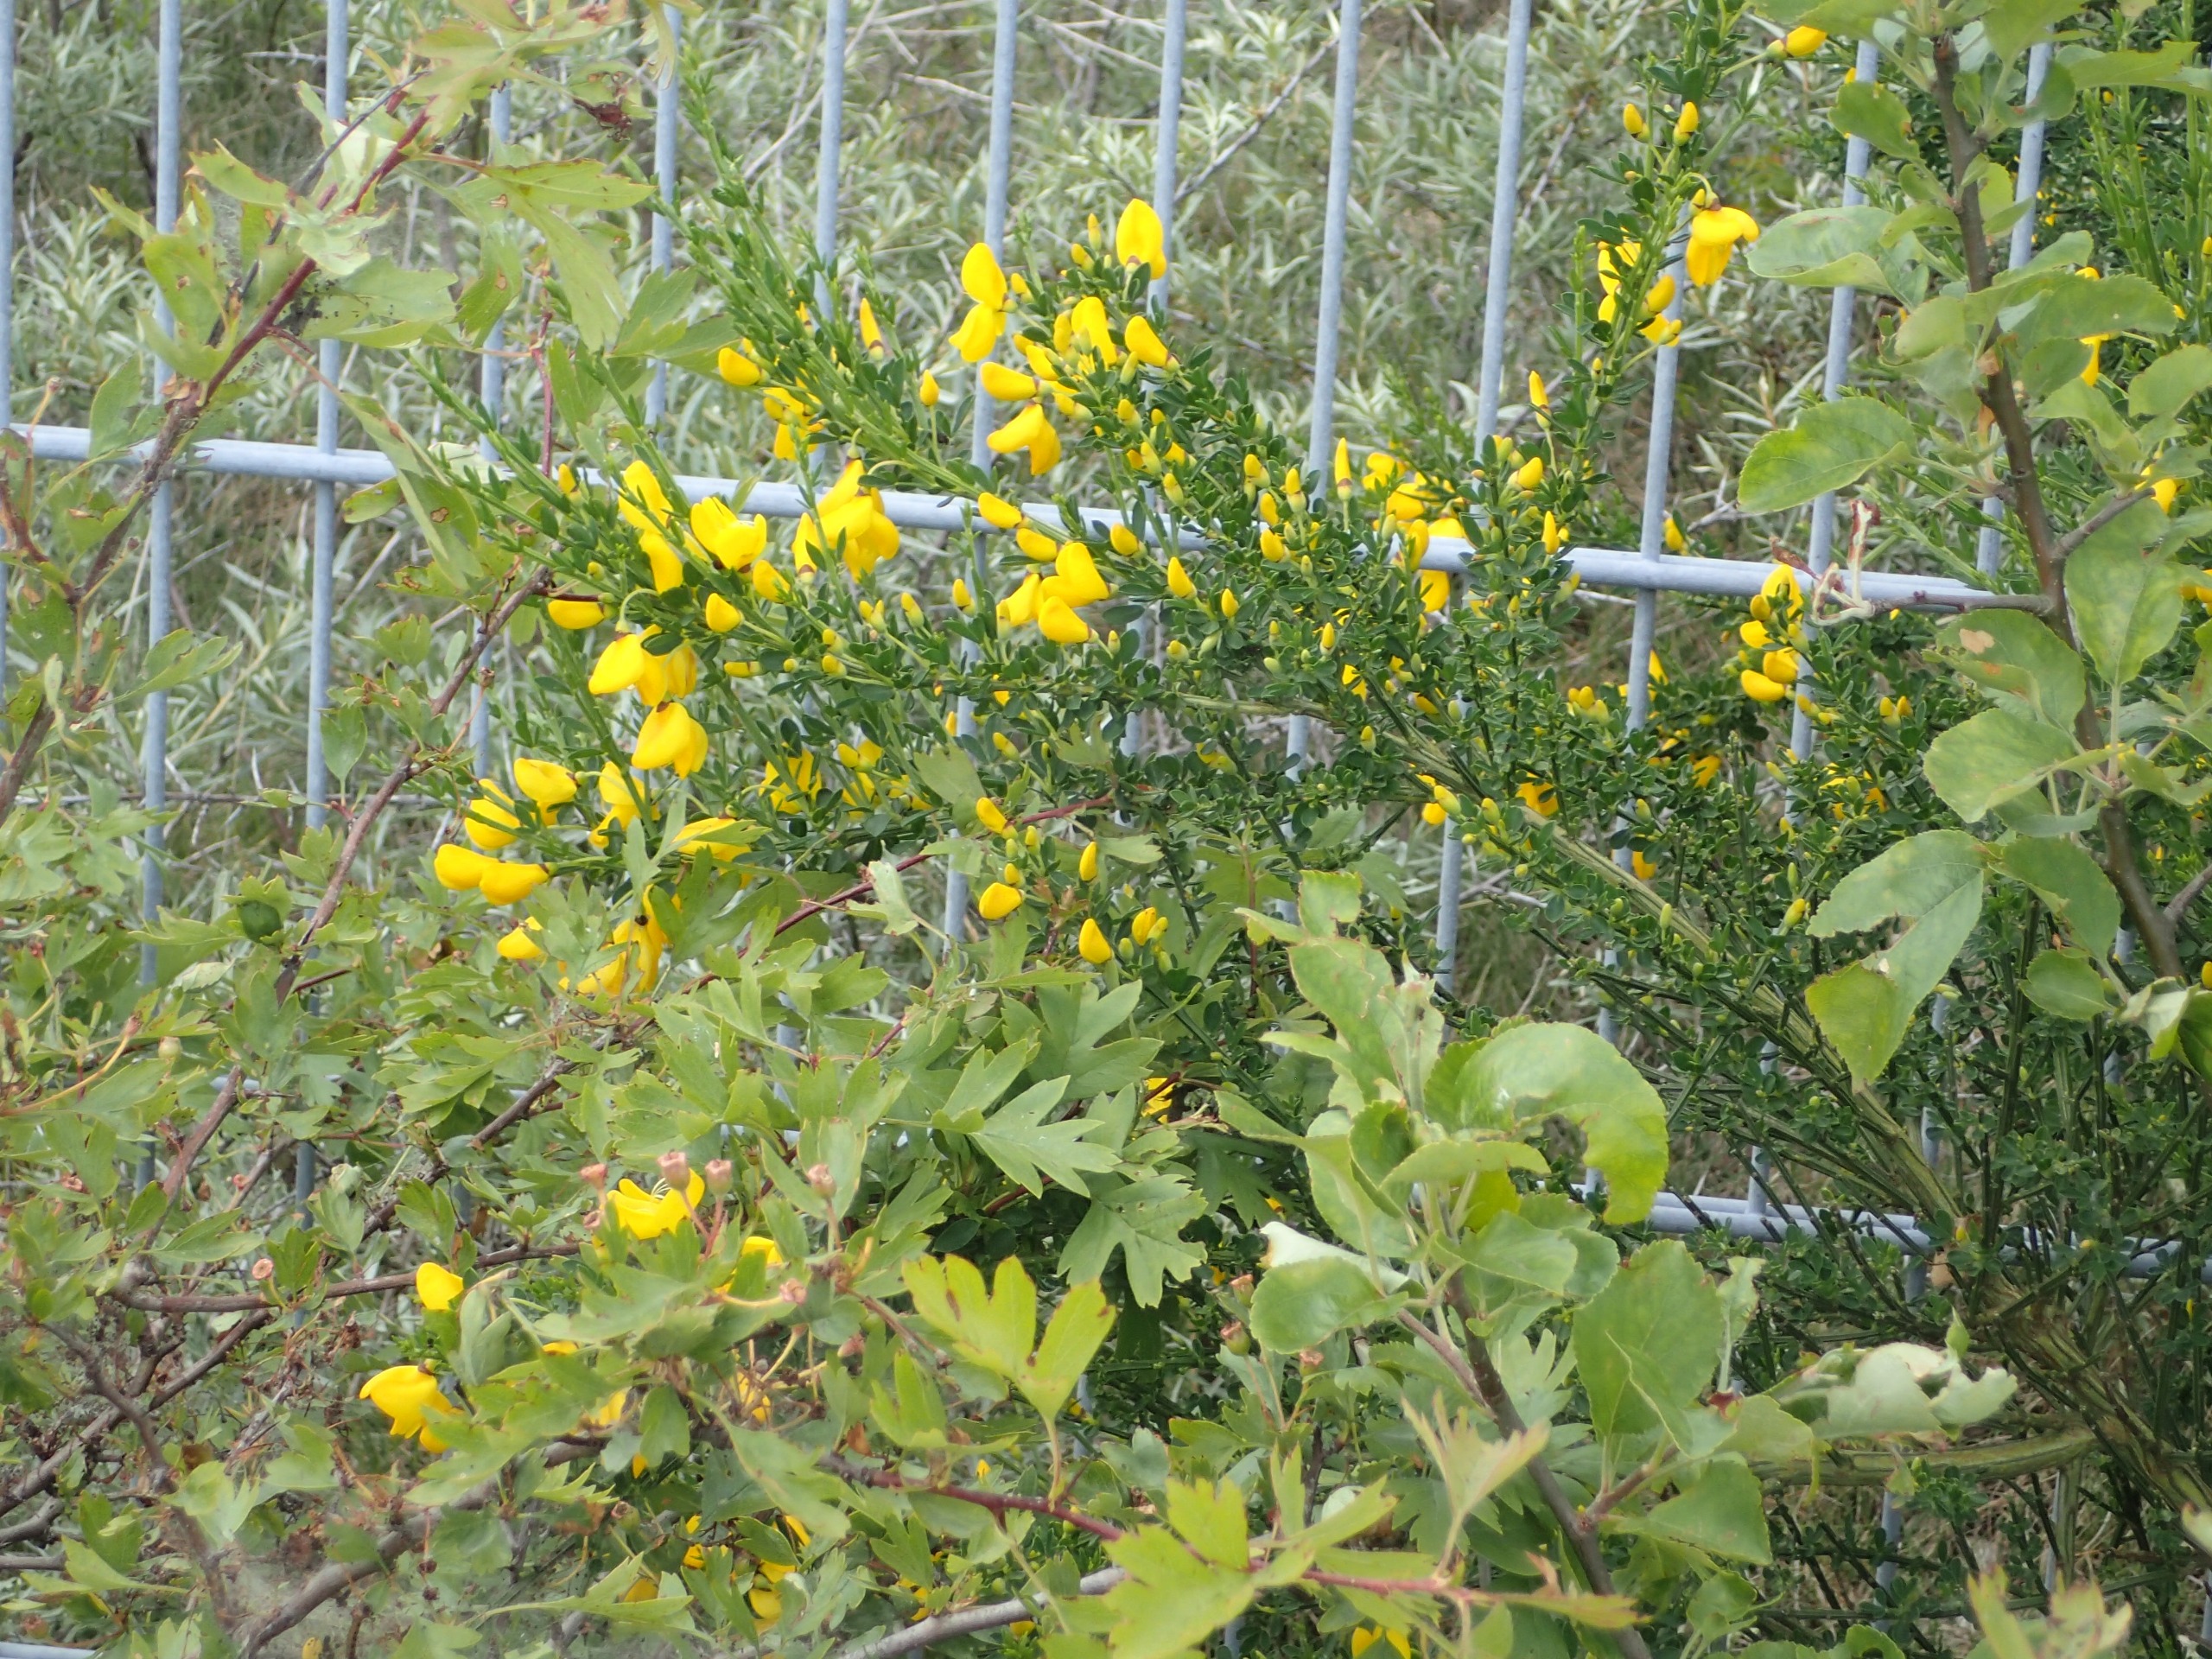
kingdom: Plantae
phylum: Tracheophyta
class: Magnoliopsida
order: Fabales
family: Fabaceae
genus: Cytisus
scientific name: Cytisus scoparius
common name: Almindelig gyvel
